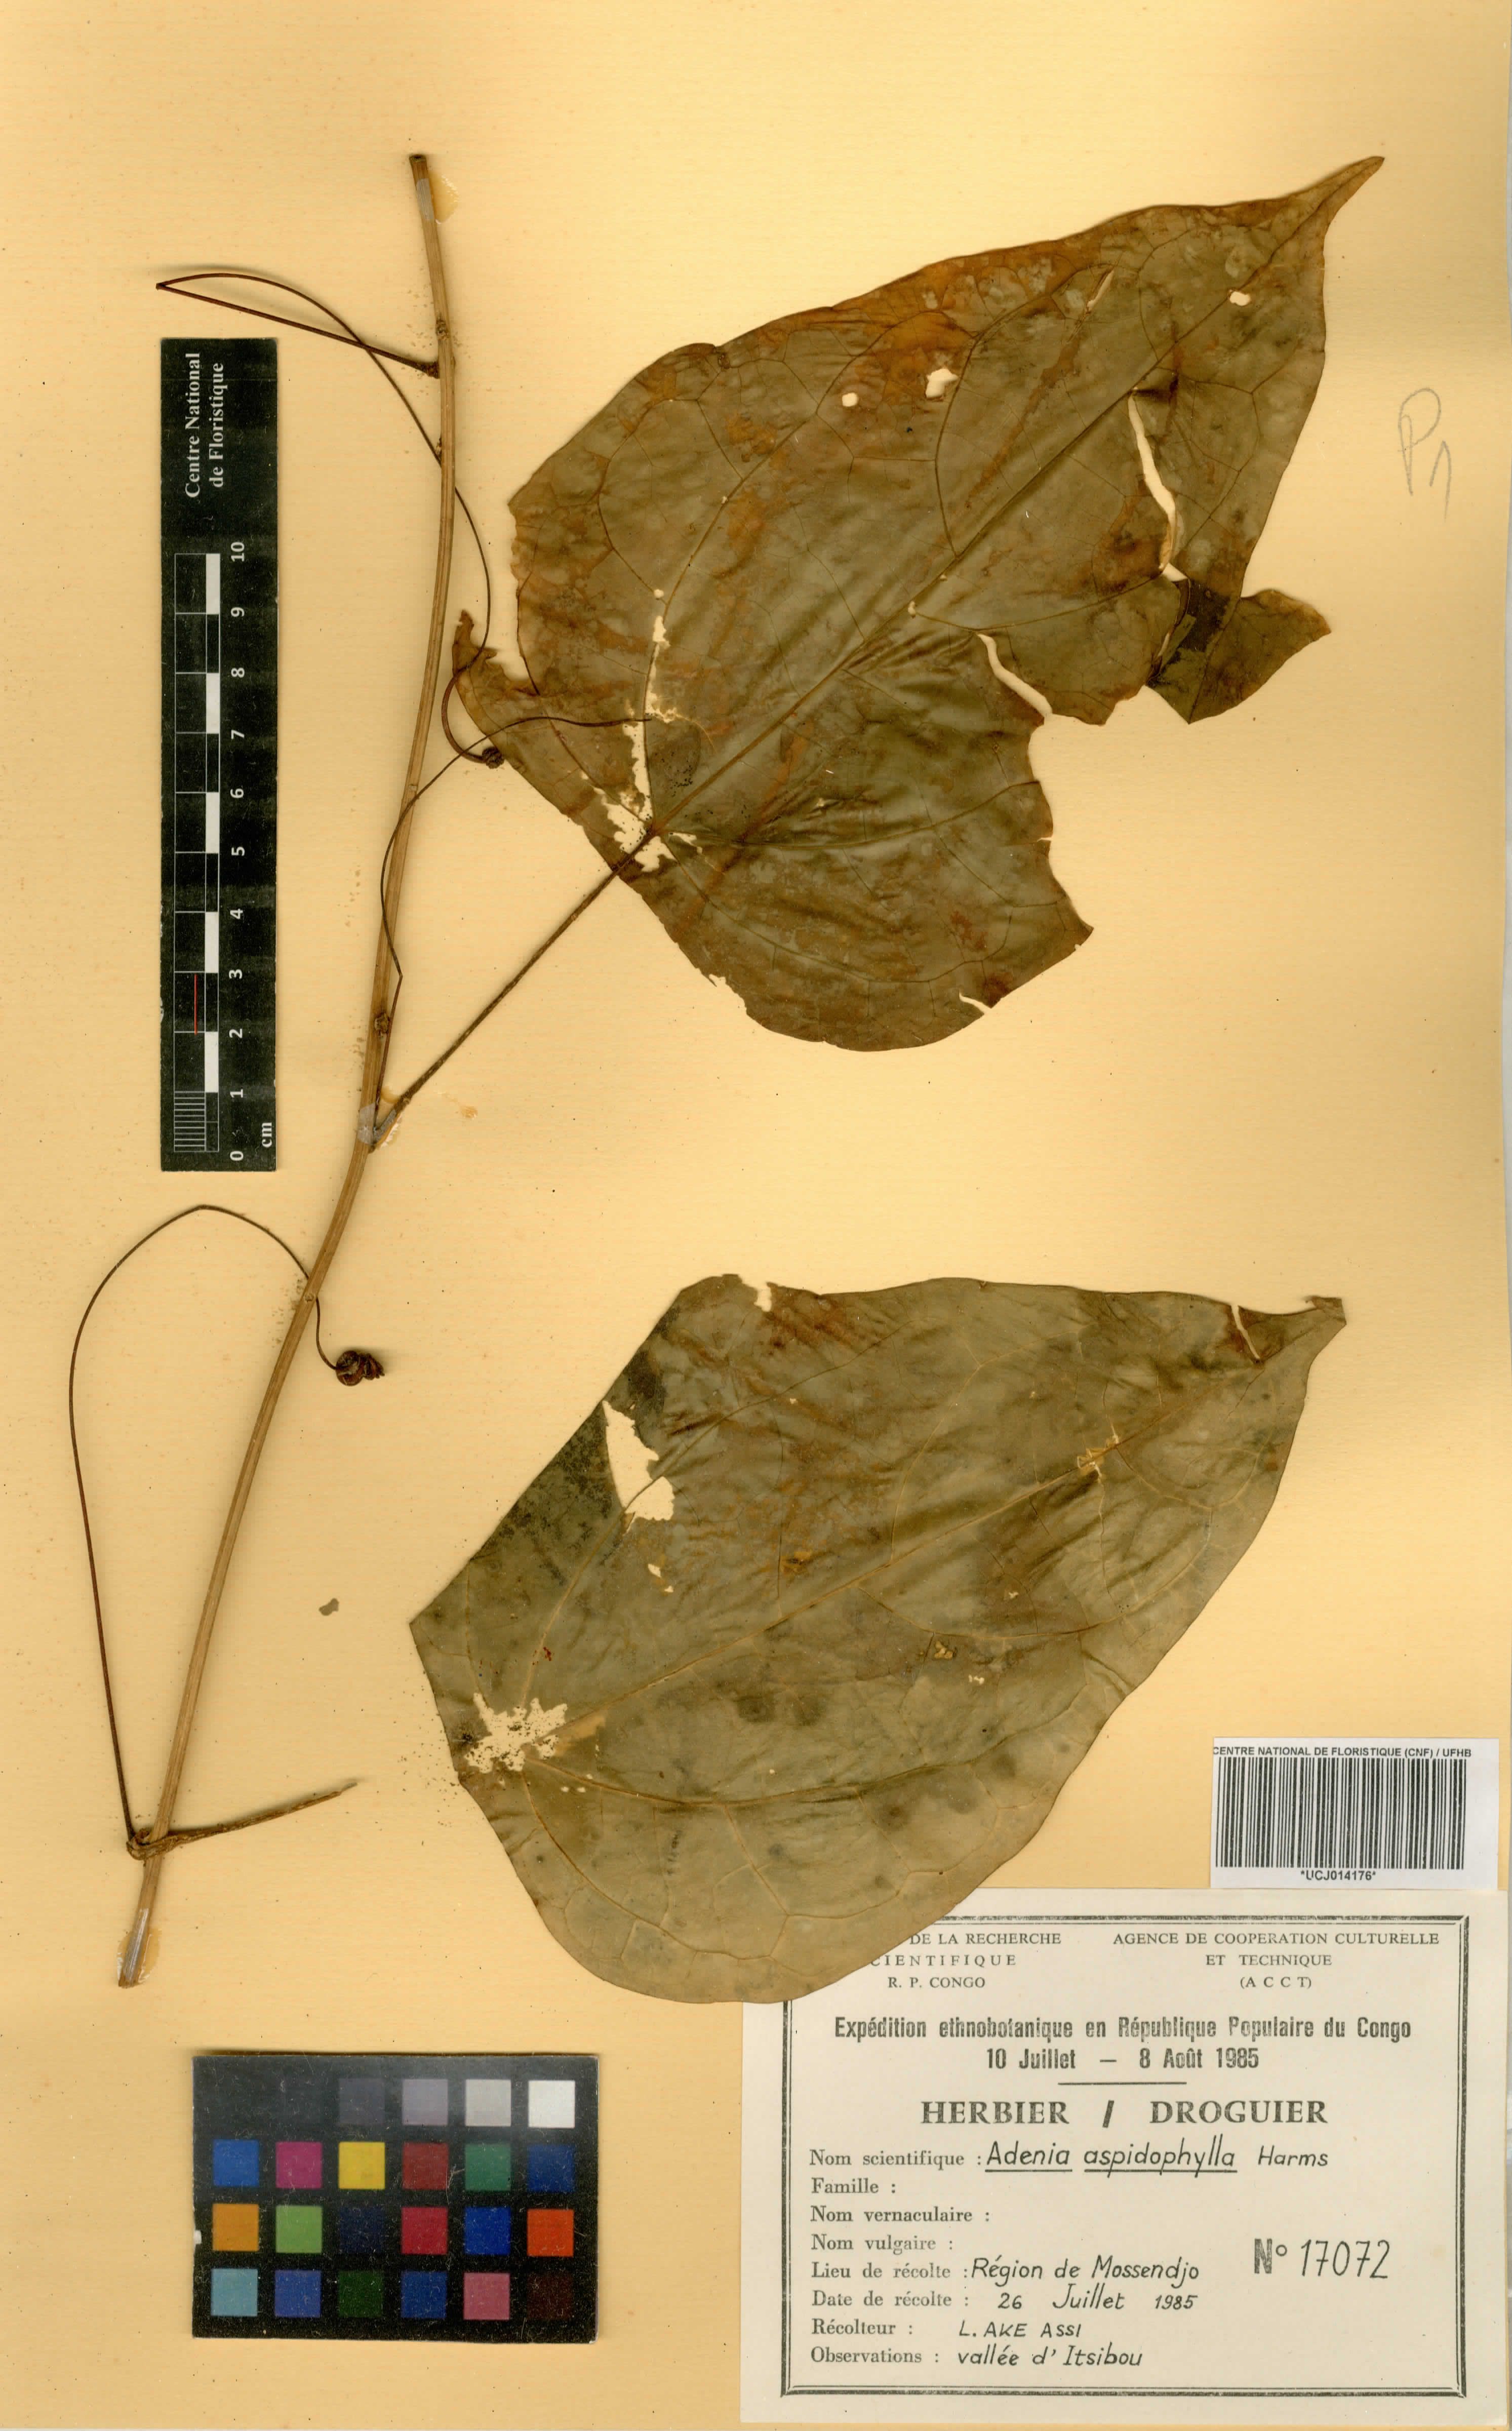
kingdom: Plantae
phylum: Tracheophyta
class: Magnoliopsida
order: Malpighiales
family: Passifloraceae
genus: Adenia
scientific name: Adenia staudtii
